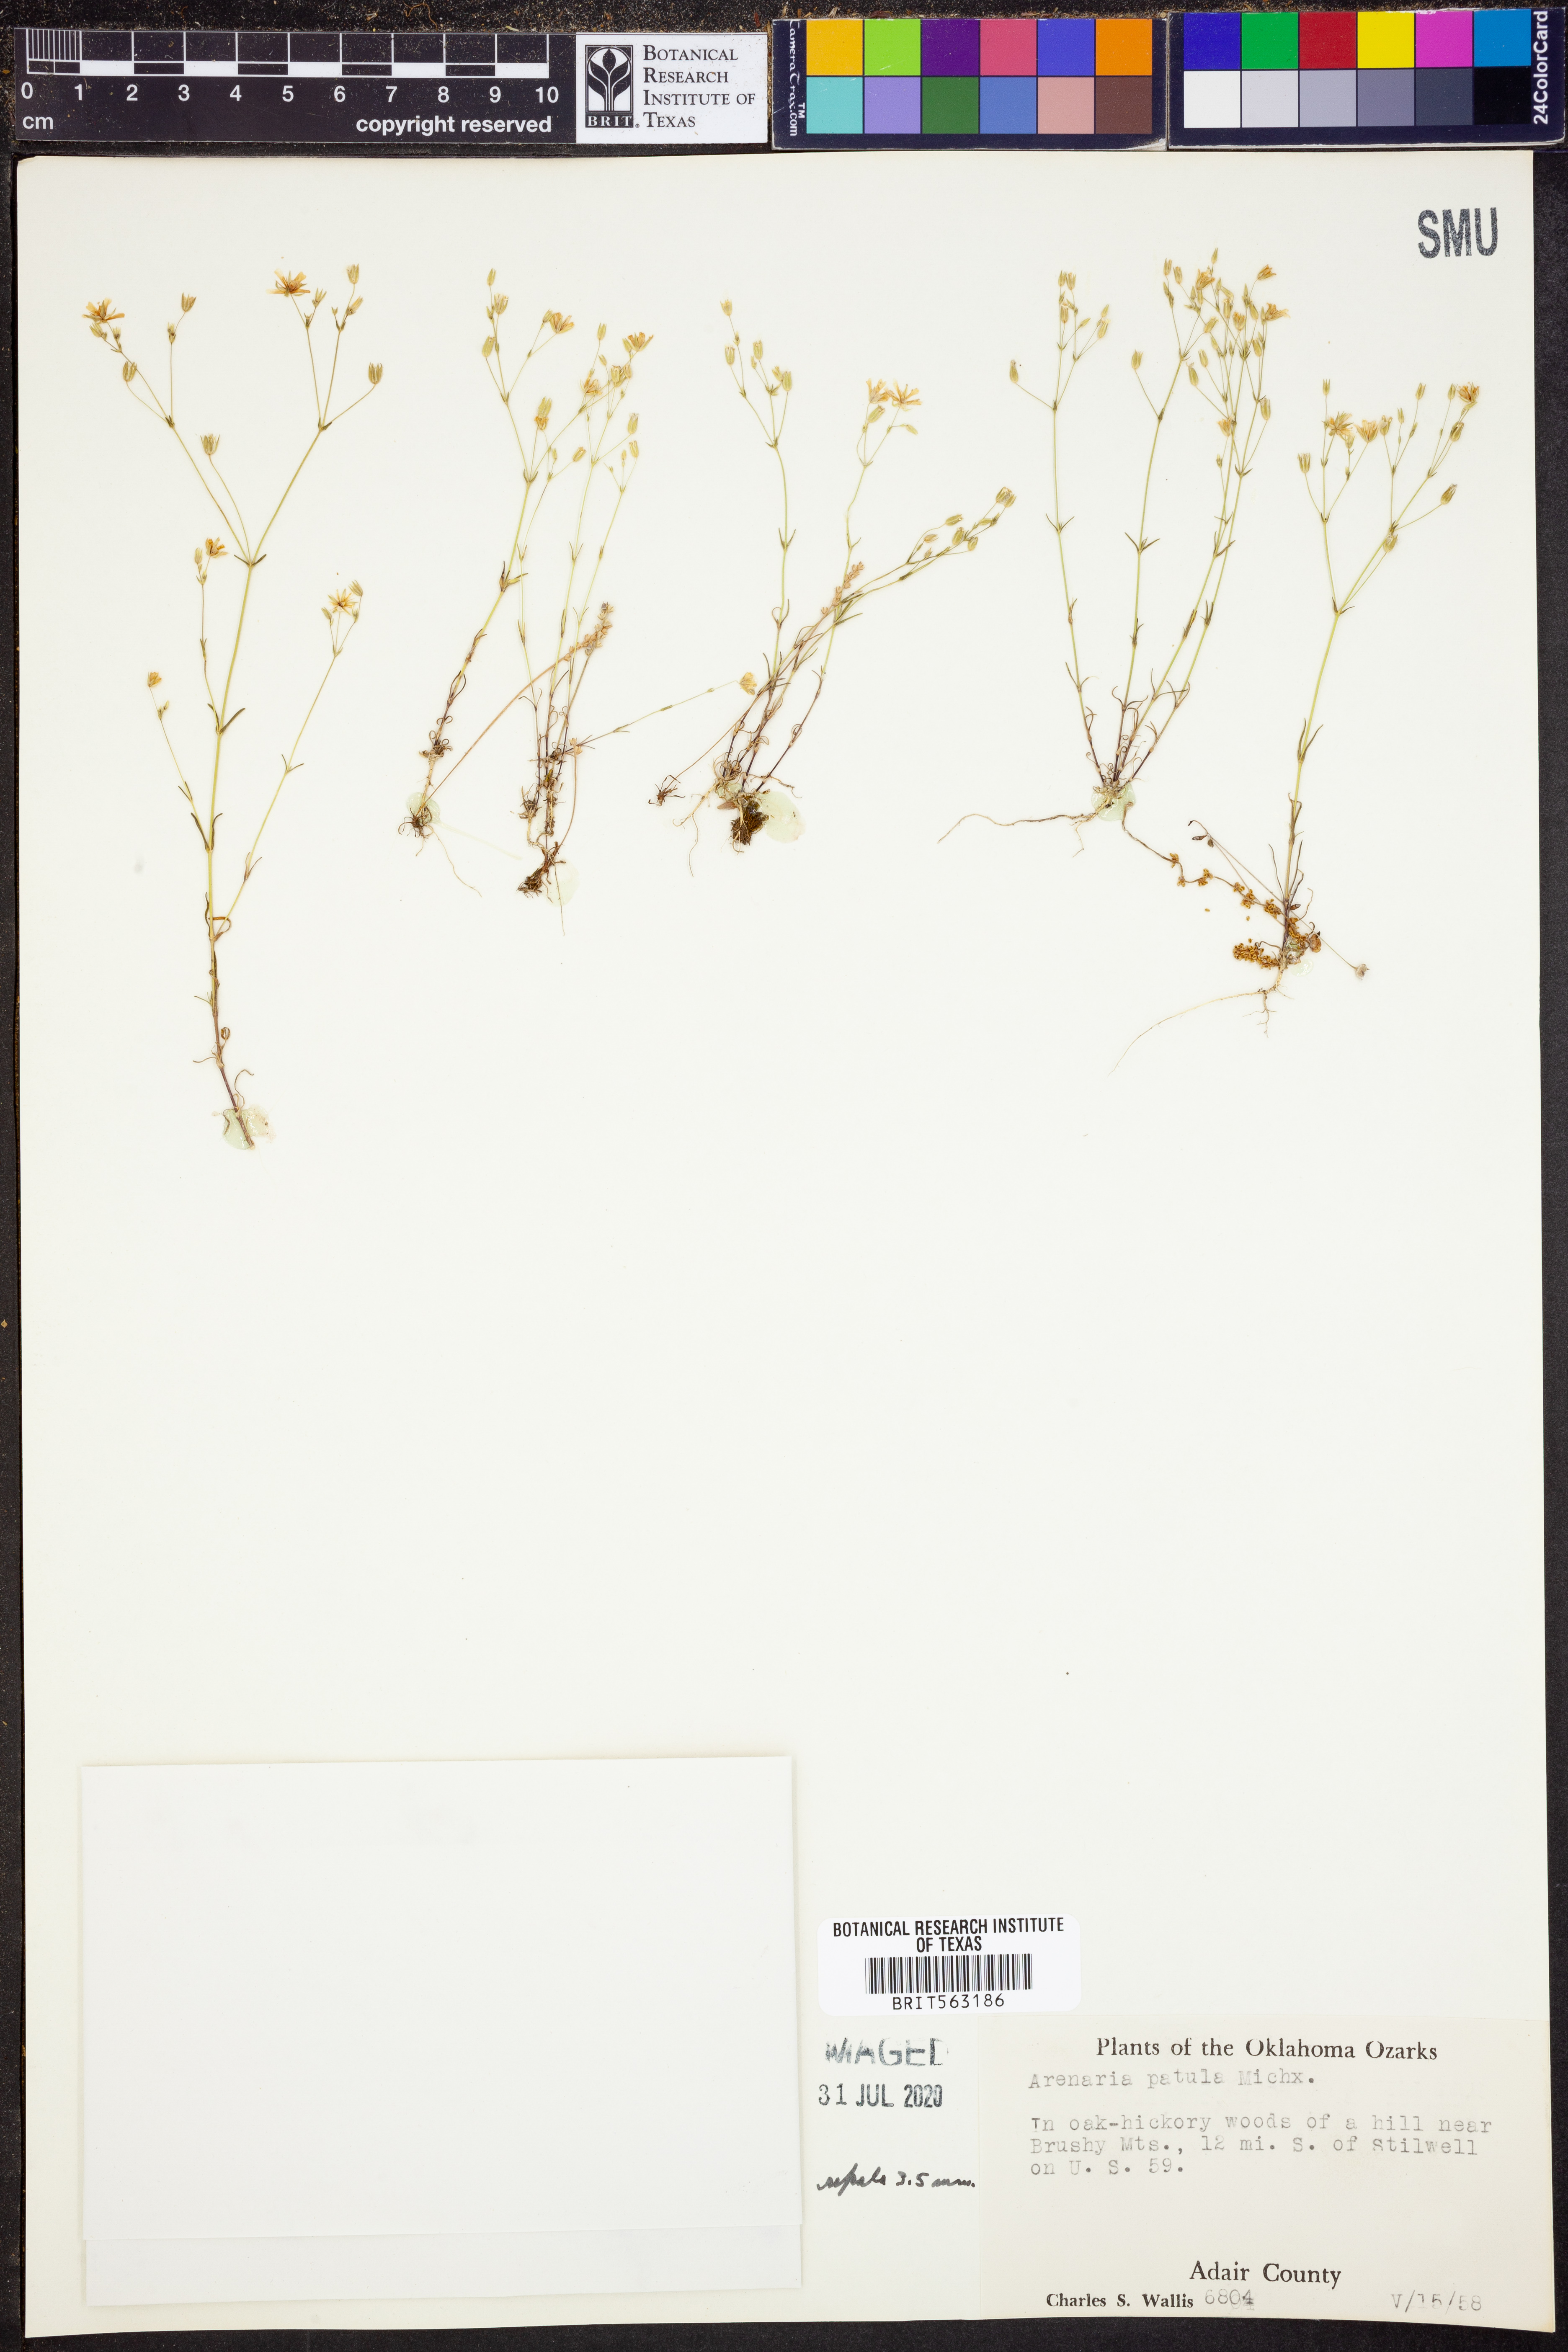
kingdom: Plantae
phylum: Tracheophyta
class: Magnoliopsida
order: Caryophyllales
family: Caryophyllaceae
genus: Mononeuria
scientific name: Mononeuria patula
